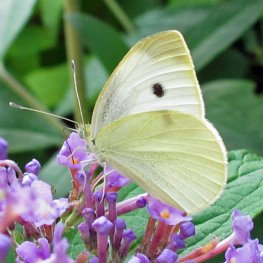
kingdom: Animalia
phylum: Arthropoda
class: Insecta
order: Lepidoptera
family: Pieridae
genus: Pieris
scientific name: Pieris rapae
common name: Cabbage White
